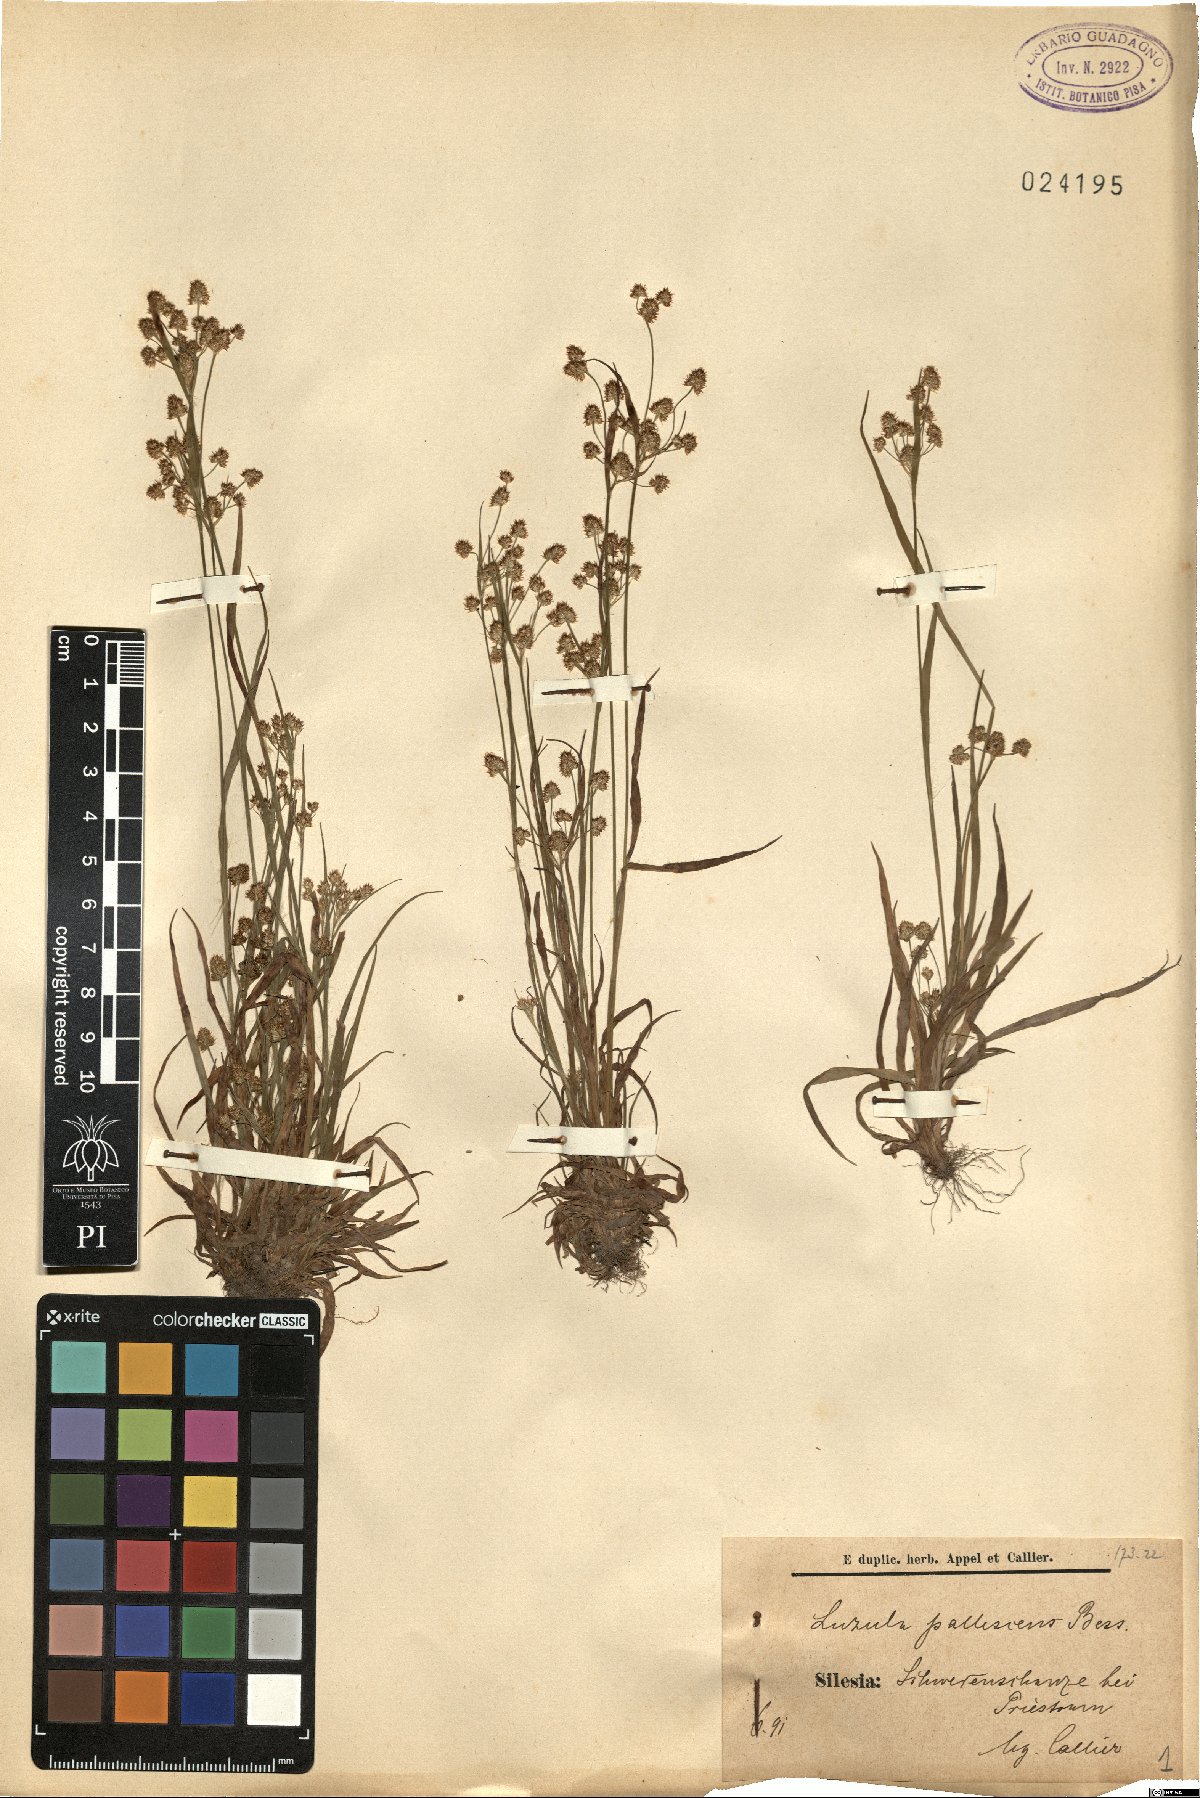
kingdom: Plantae
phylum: Tracheophyta
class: Liliopsida
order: Poales
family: Juncaceae
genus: Luzula
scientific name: Luzula pallescens
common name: Fen wood-rush
